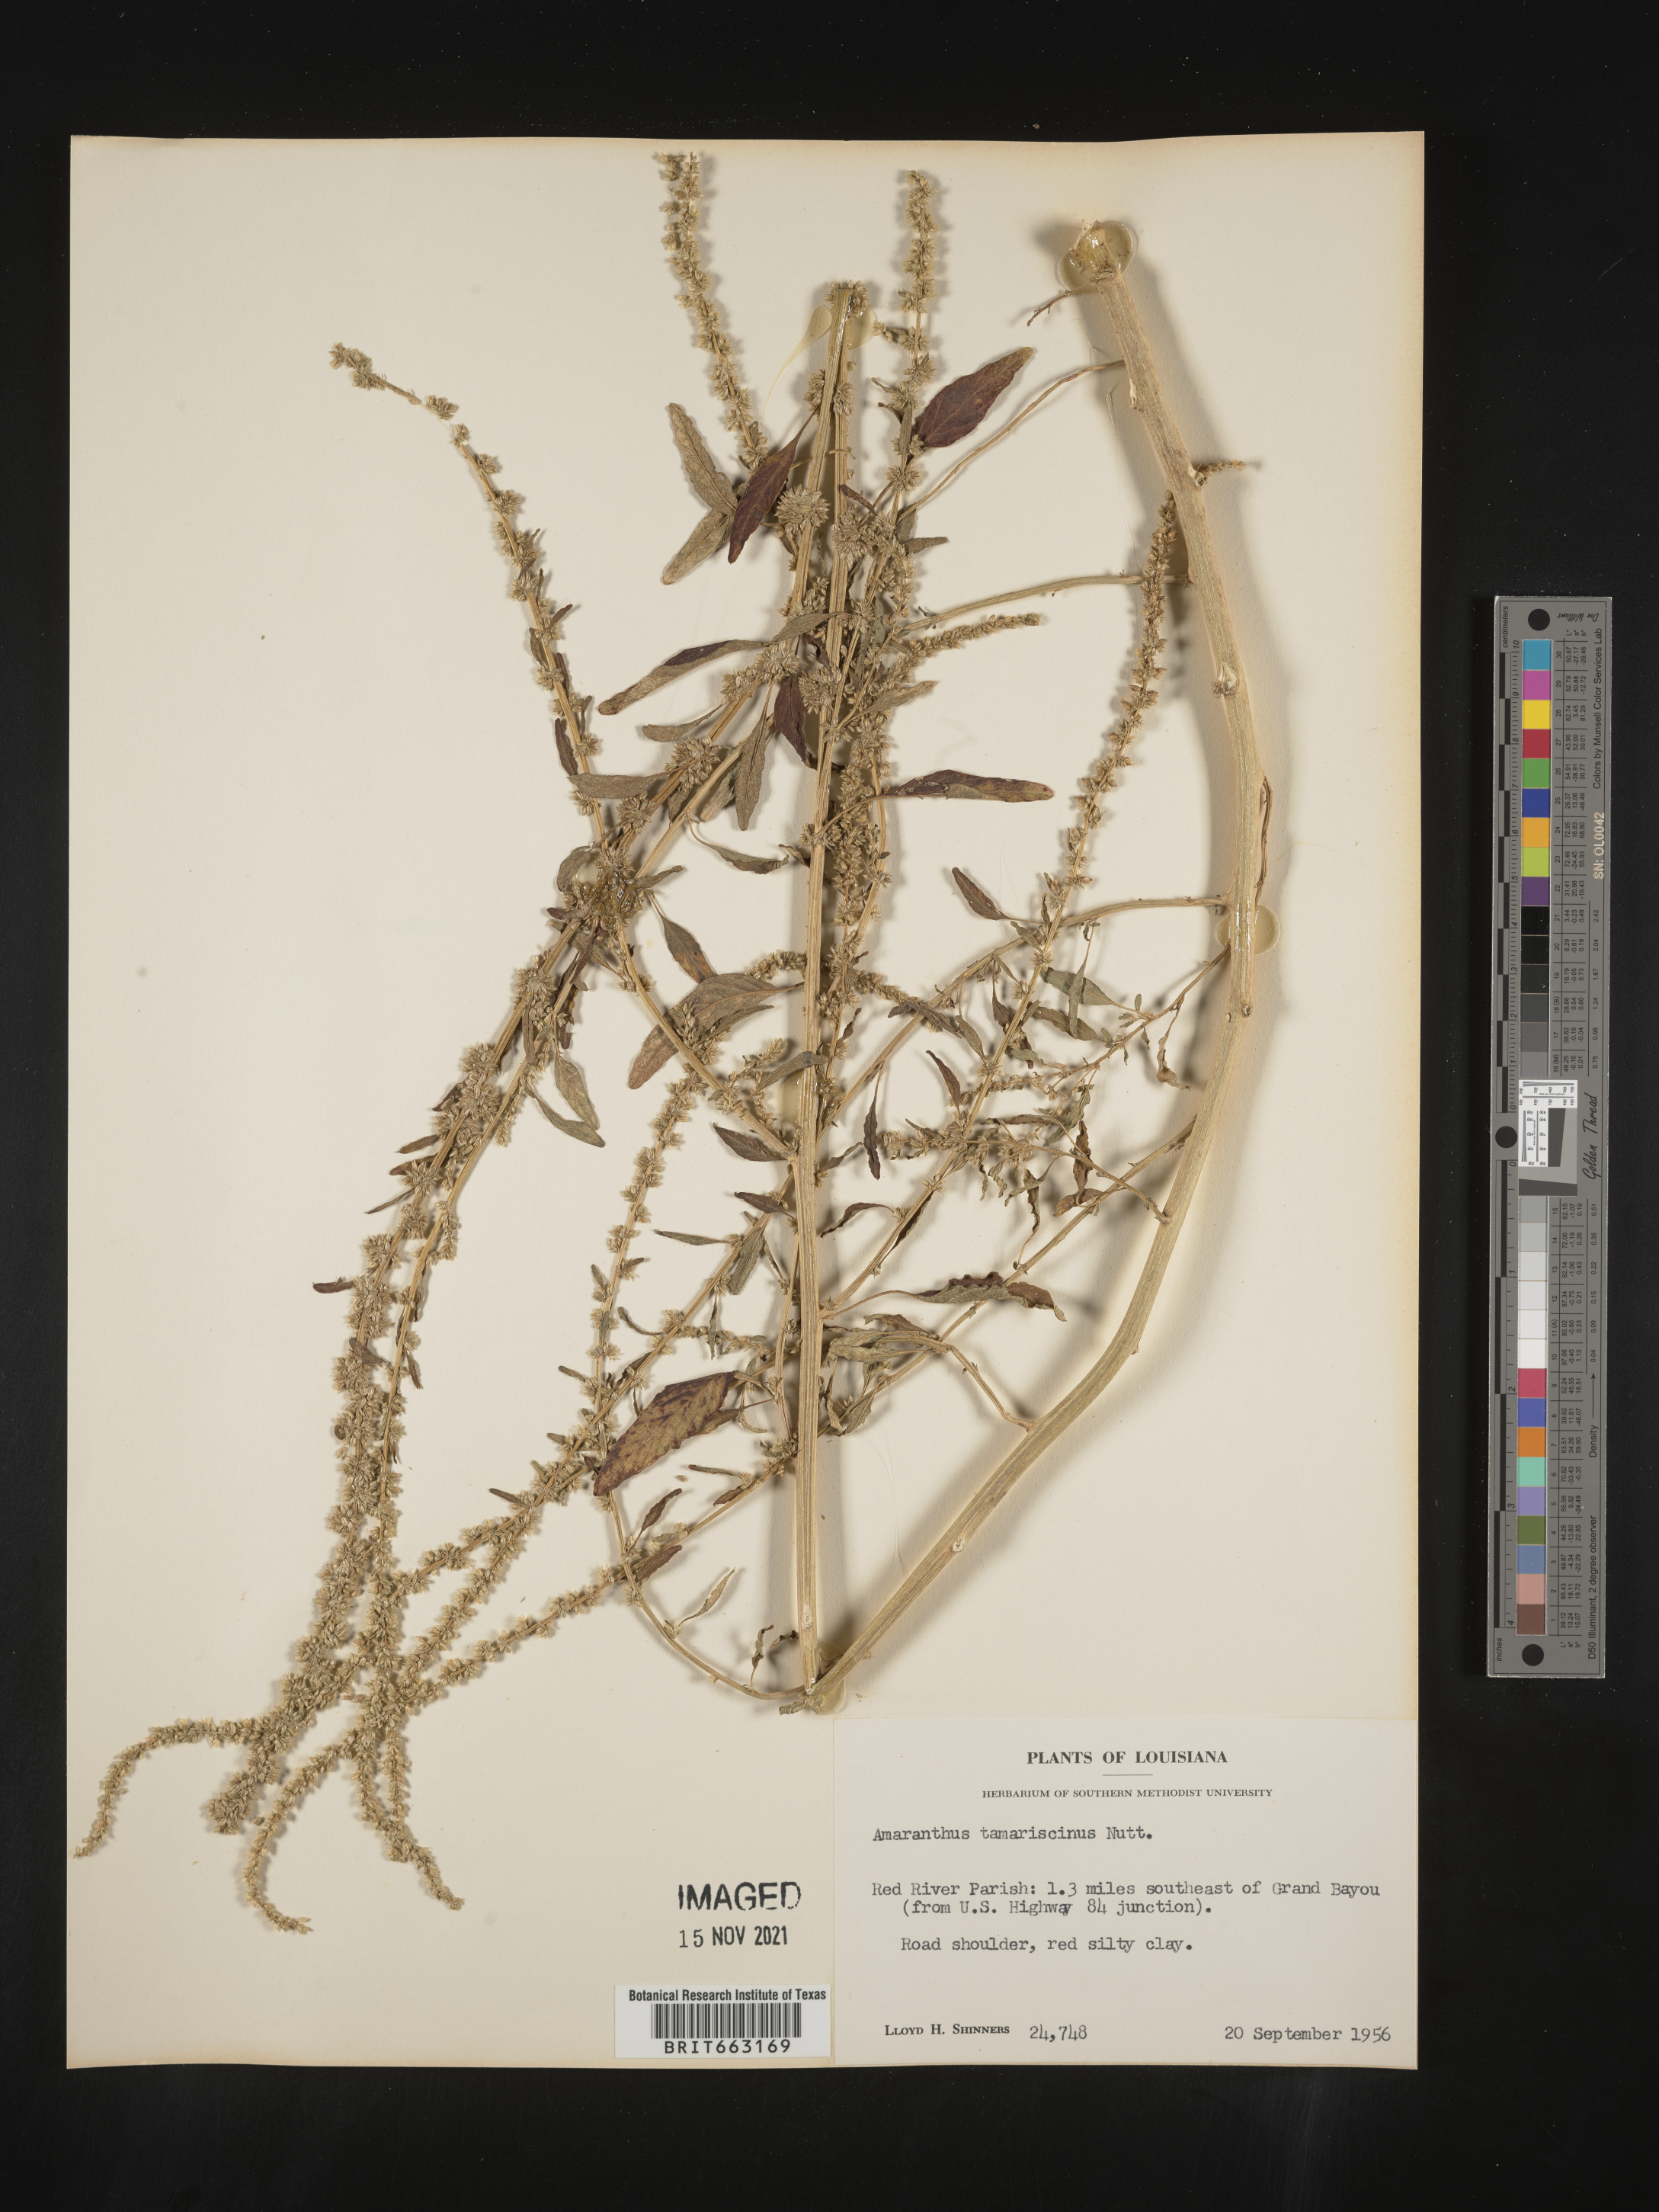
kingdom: Plantae
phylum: Tracheophyta
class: Magnoliopsida
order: Caryophyllales
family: Amaranthaceae
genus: Amaranthus
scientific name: Amaranthus tamariscinus
